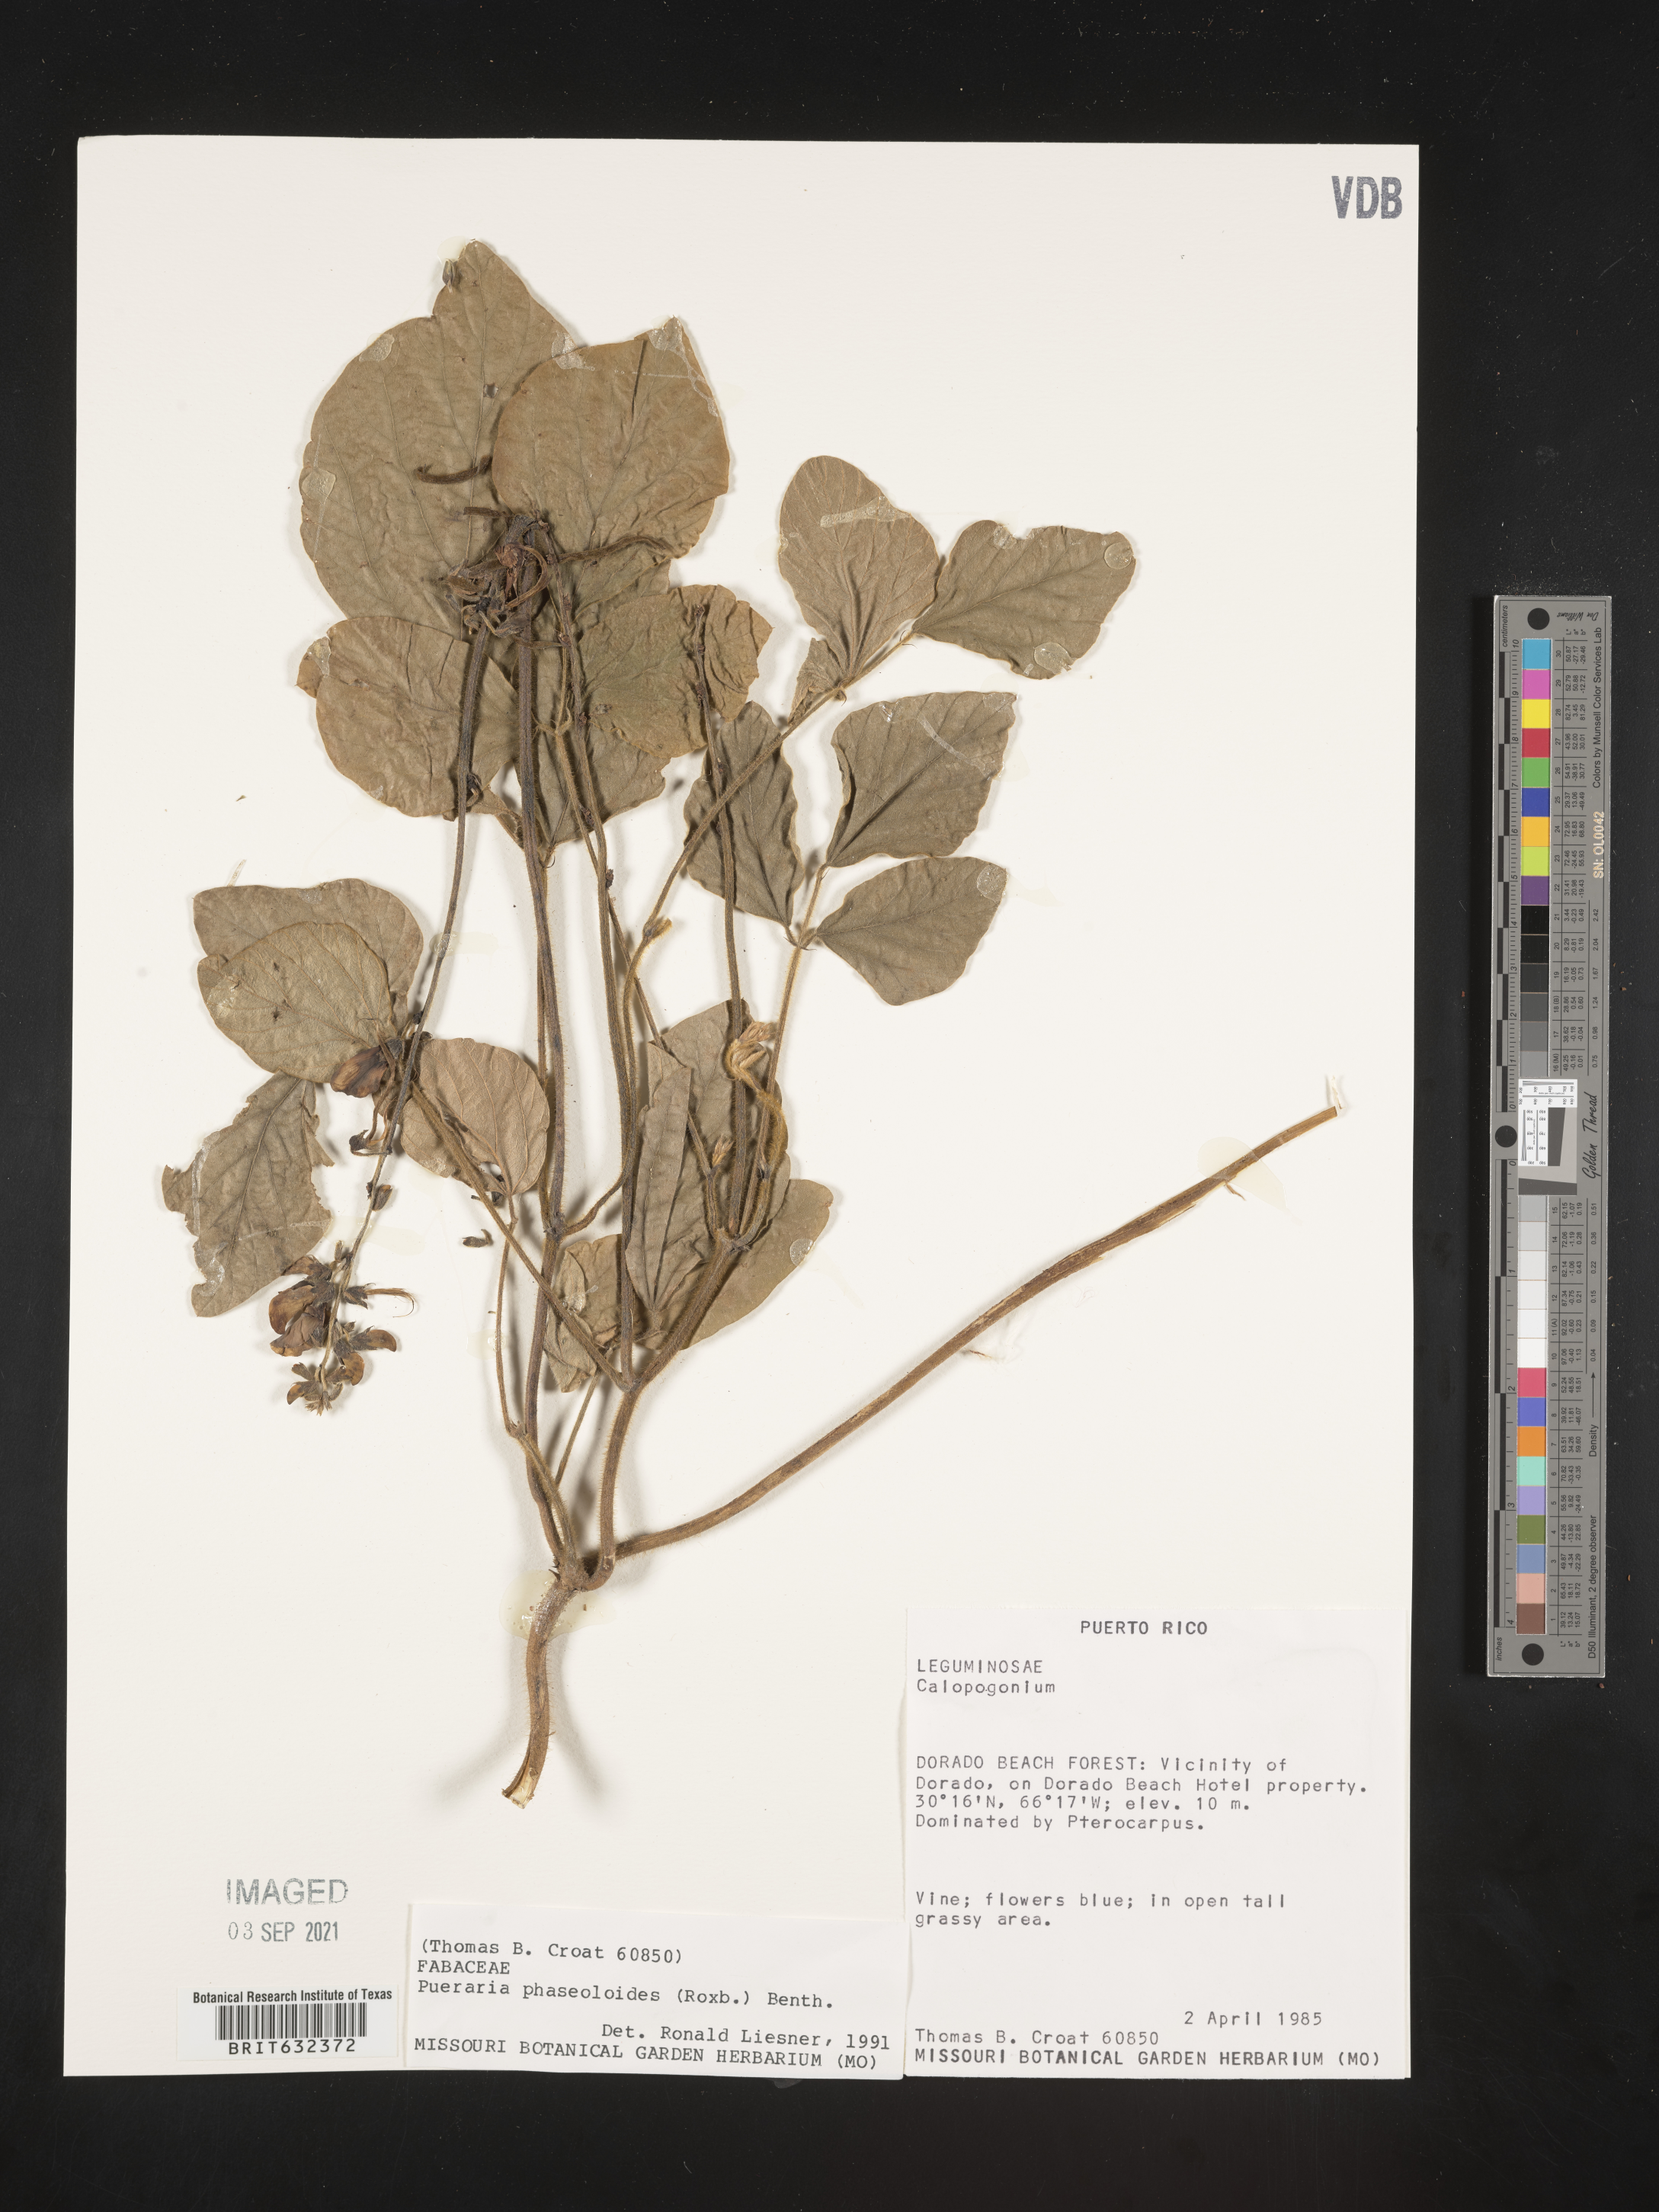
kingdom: Plantae
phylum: Tracheophyta
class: Magnoliopsida
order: Fabales
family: Fabaceae
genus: Pueraria
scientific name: Pueraria
